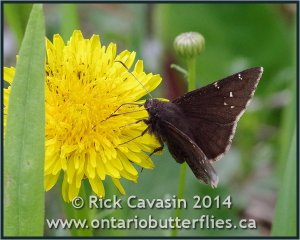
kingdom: Animalia
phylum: Arthropoda
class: Insecta
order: Lepidoptera
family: Hesperiidae
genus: Autochton
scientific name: Autochton
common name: Northern Cloudywing
